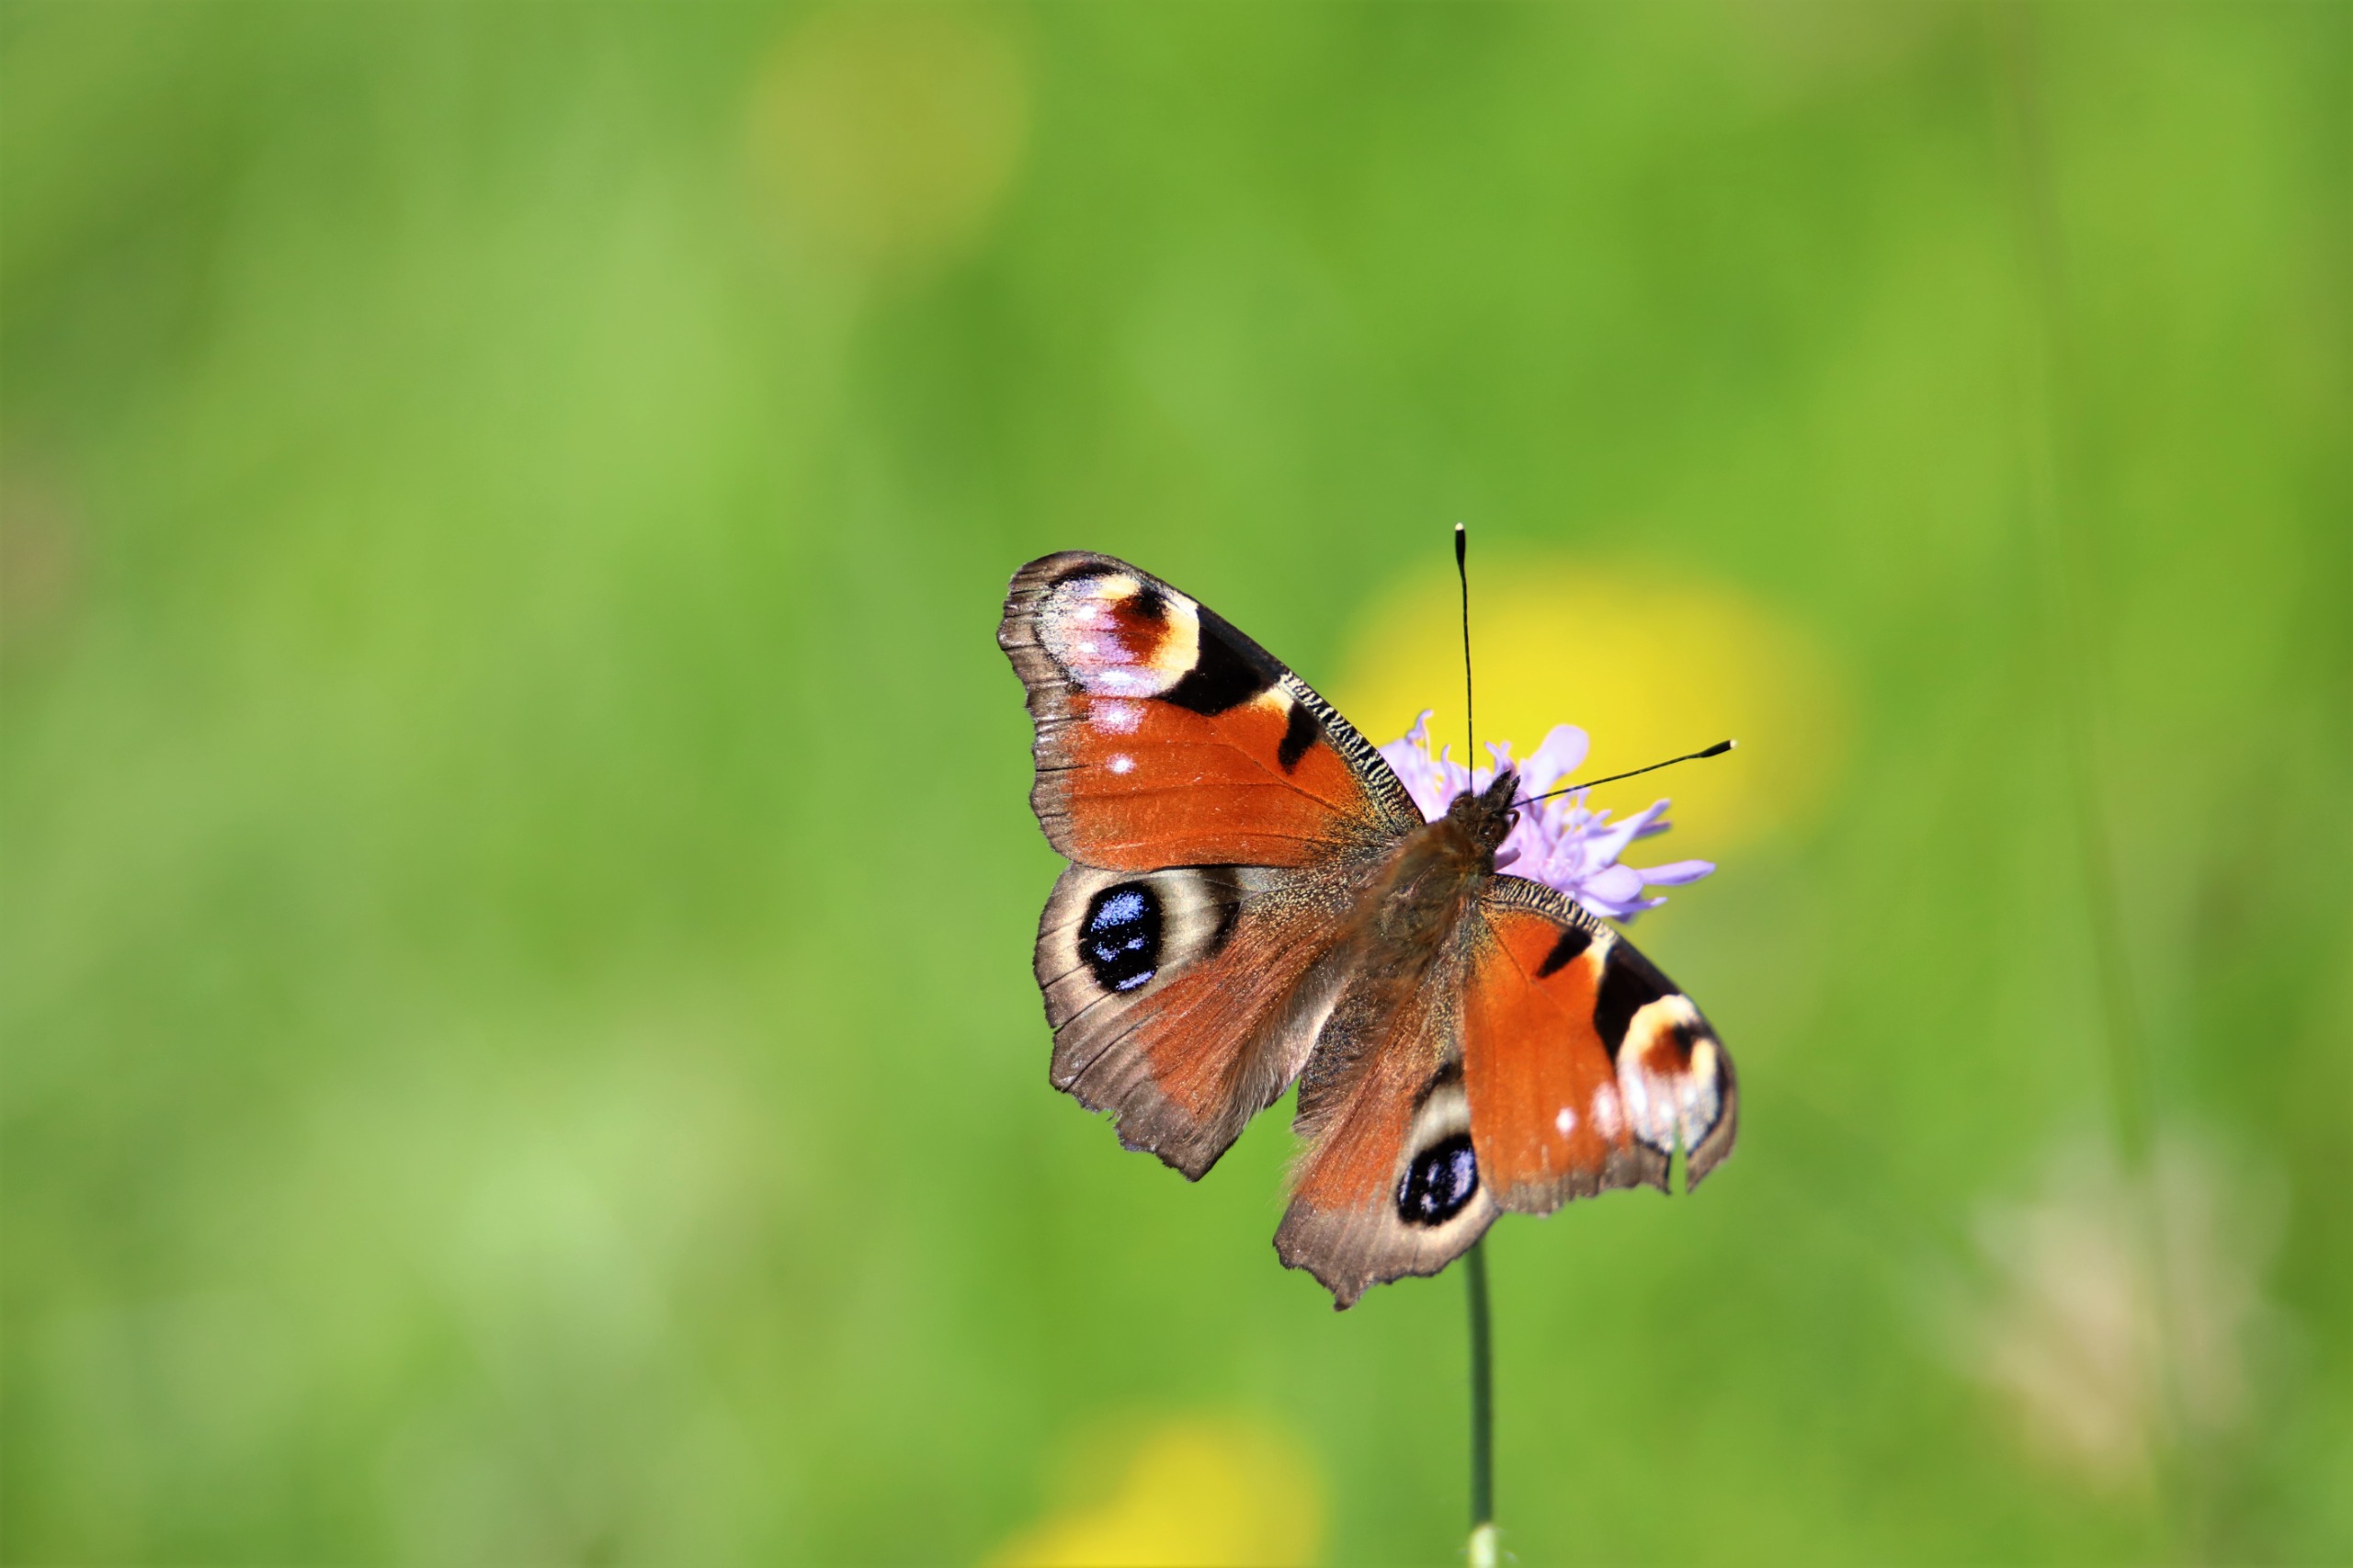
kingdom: Animalia
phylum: Arthropoda
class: Insecta
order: Lepidoptera
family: Nymphalidae
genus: Aglais
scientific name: Aglais io
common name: Dagpåfugleøje
